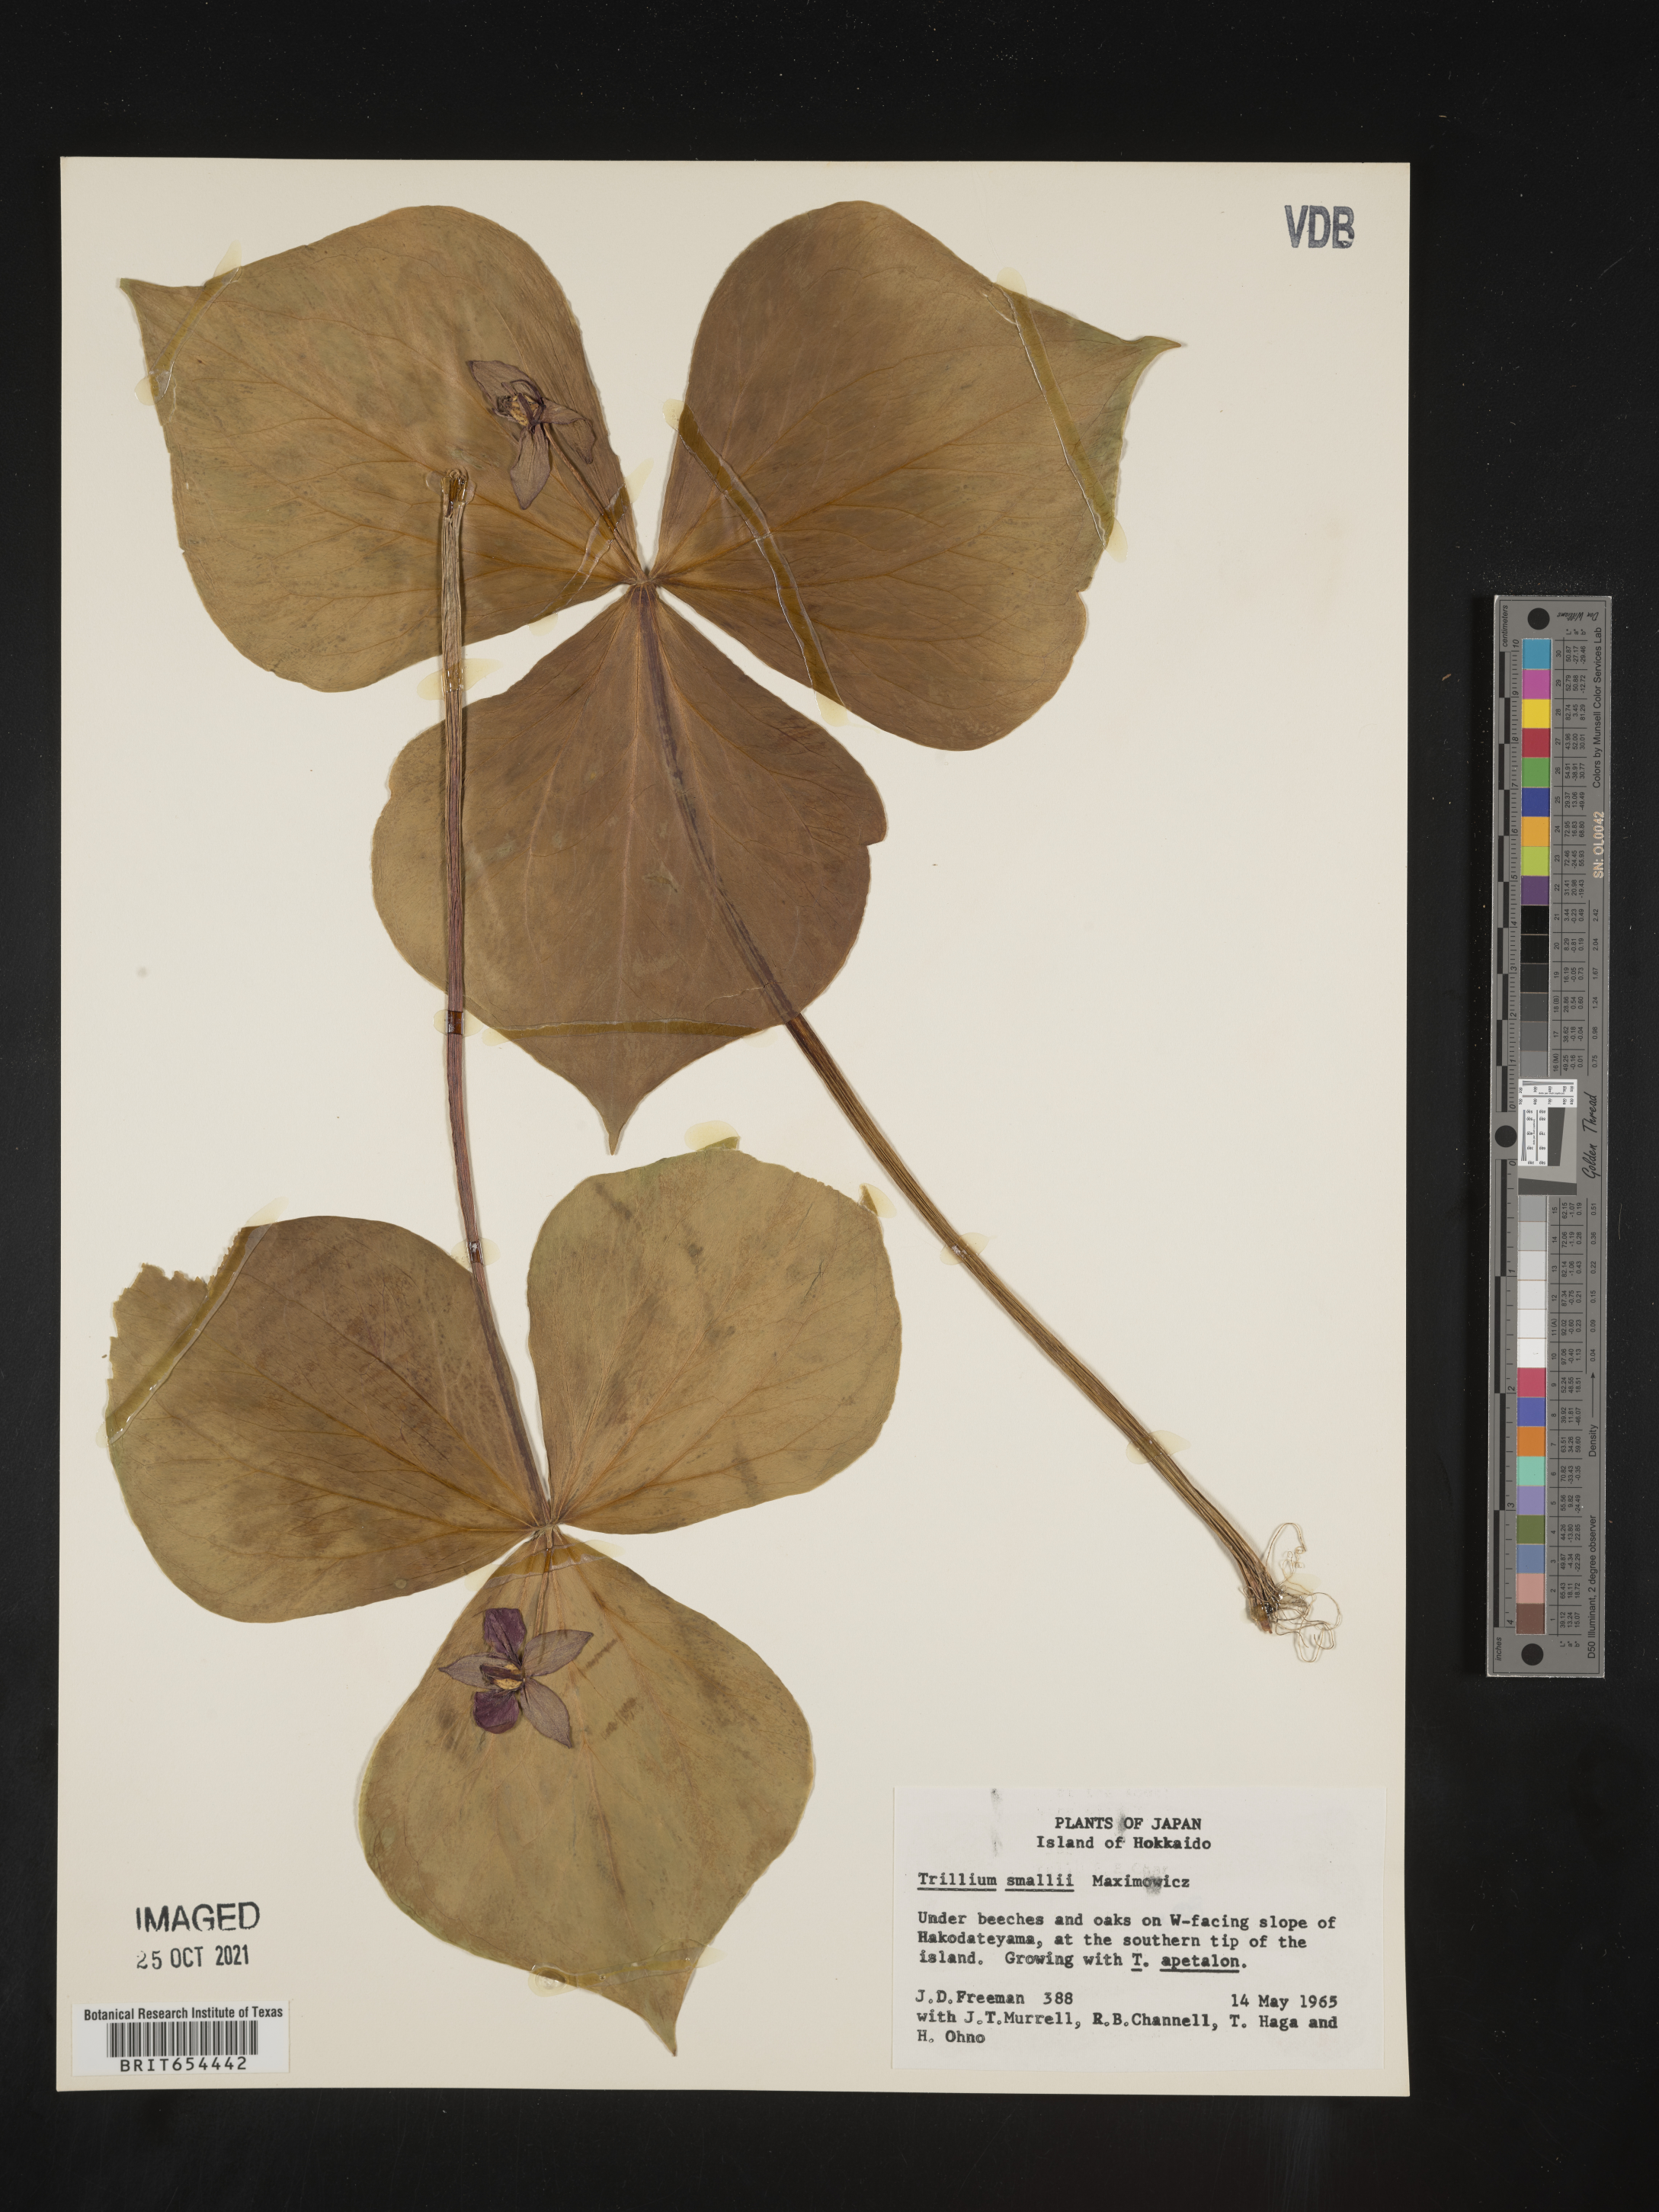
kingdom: Plantae
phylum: Tracheophyta
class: Liliopsida
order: Liliales
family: Melanthiaceae
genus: Trillium
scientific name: Trillium
